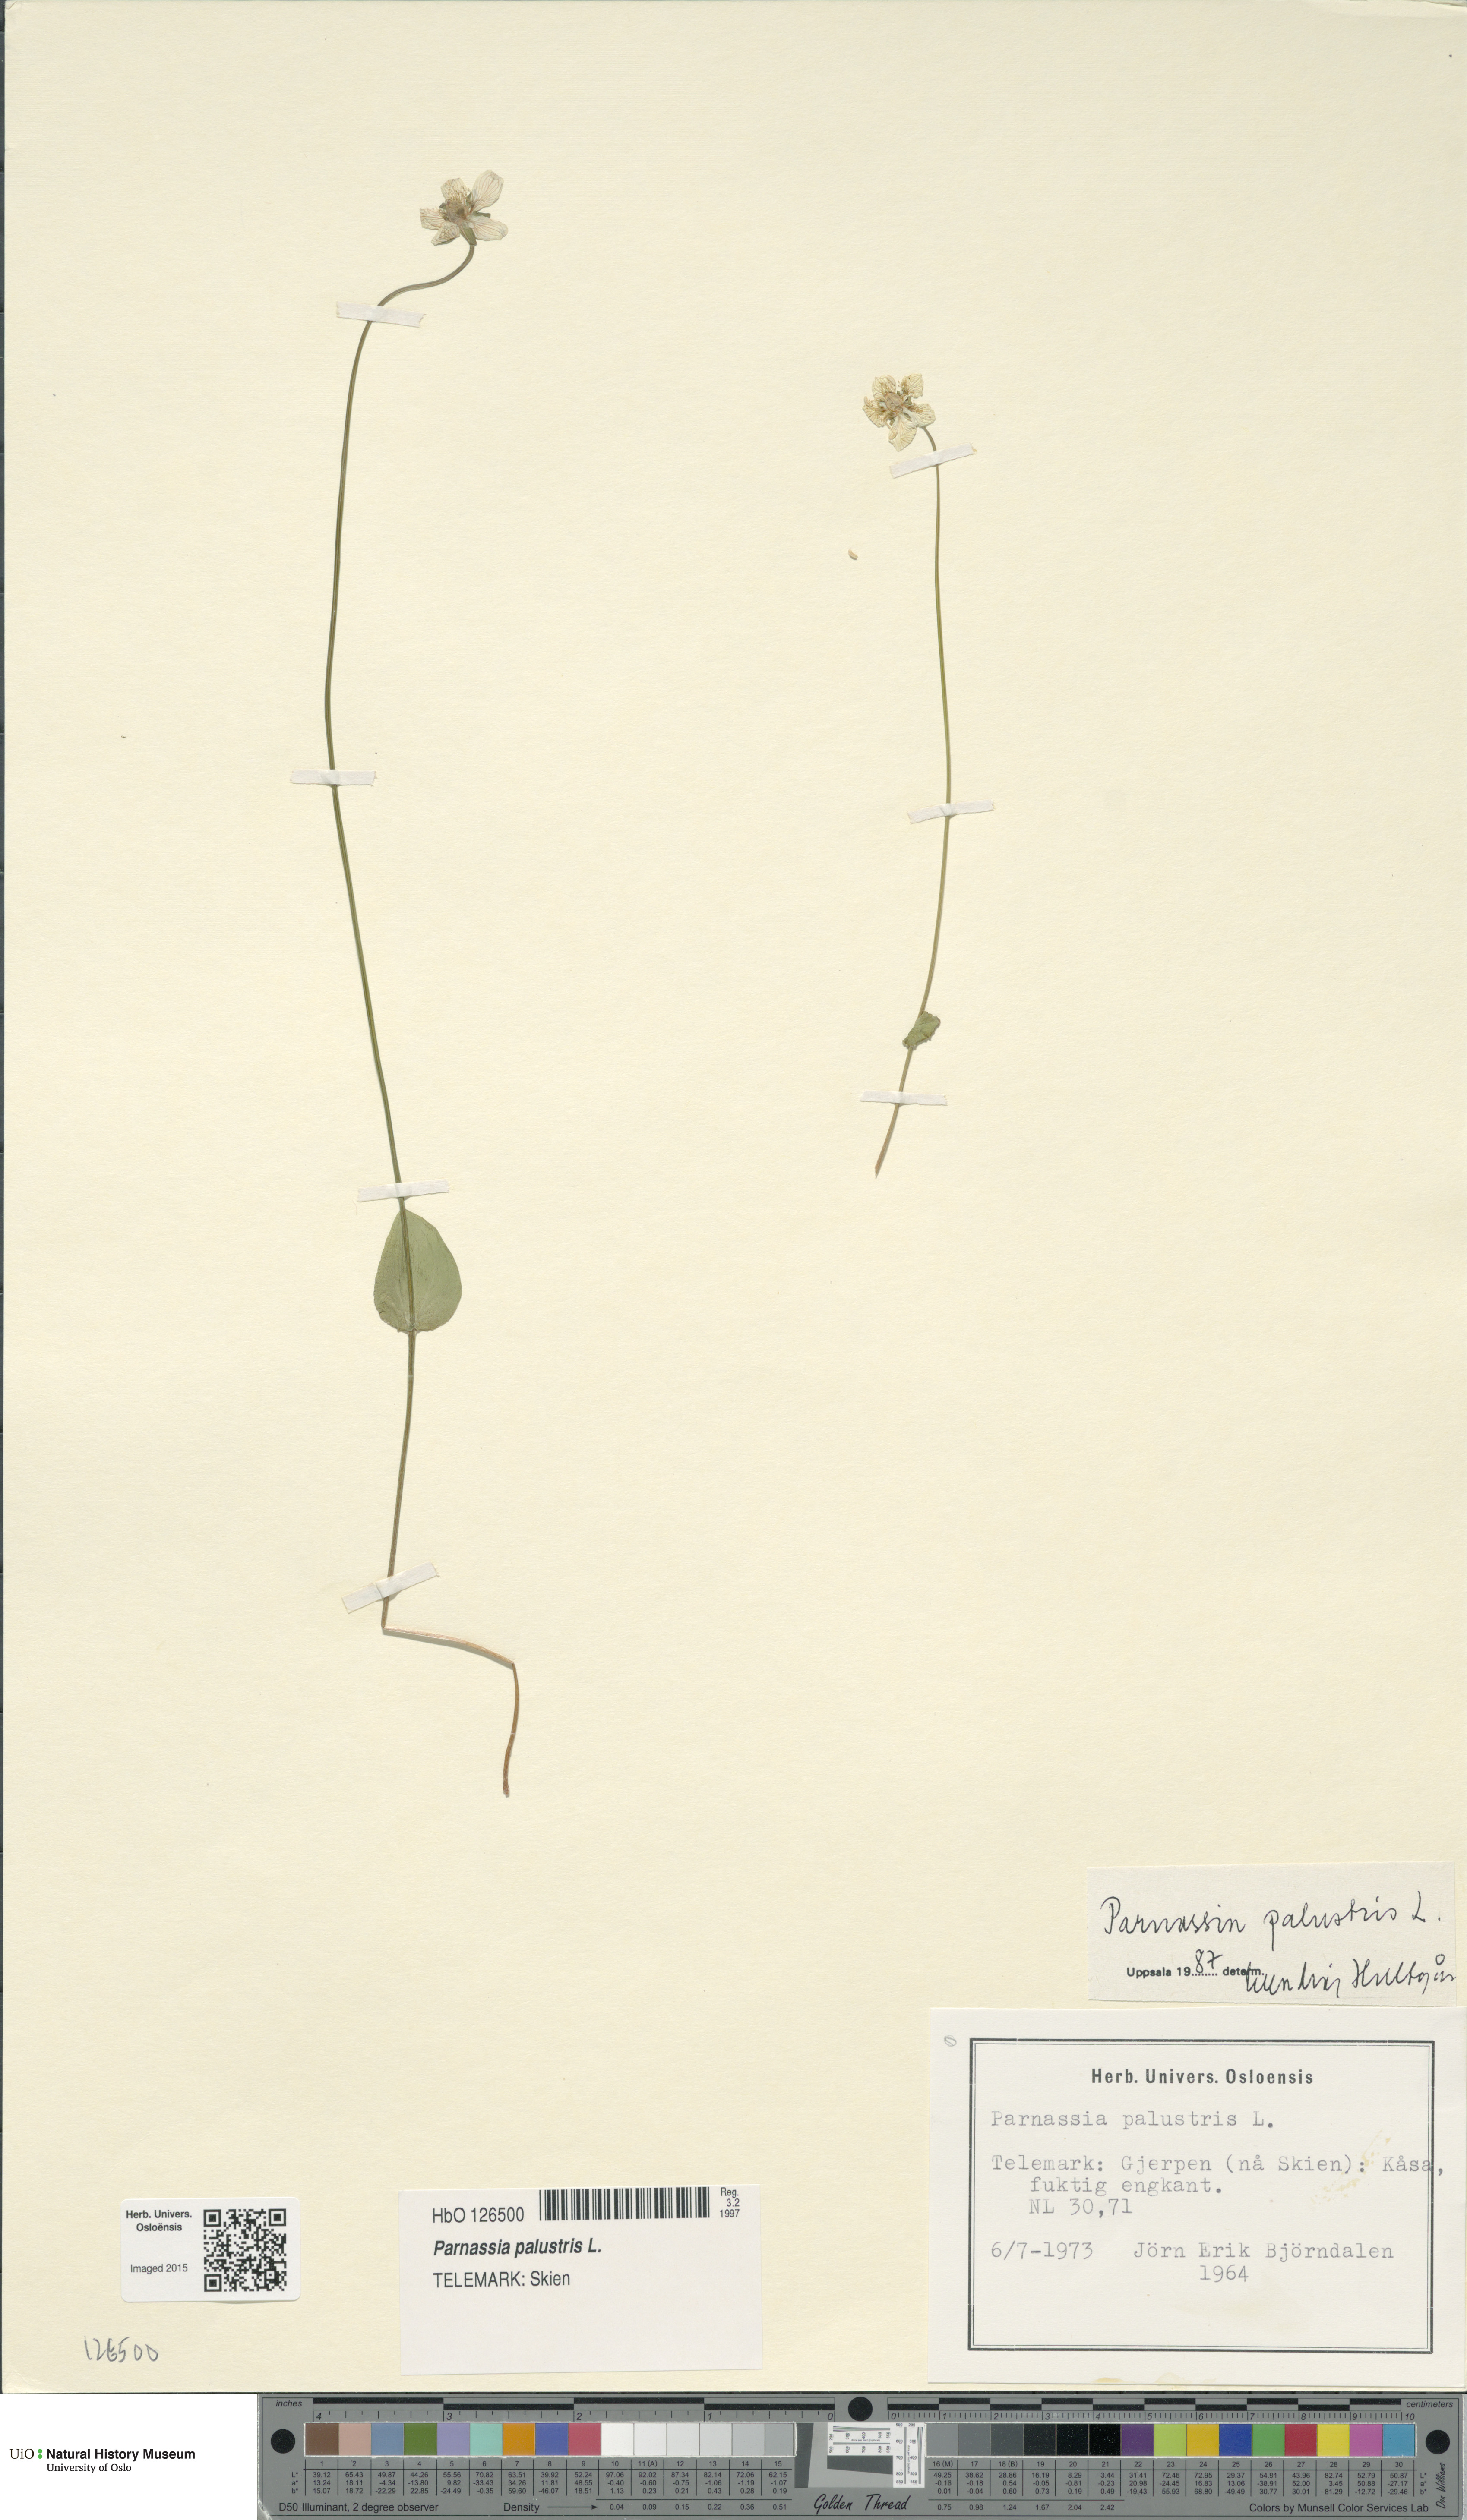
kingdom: Plantae
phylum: Tracheophyta
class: Magnoliopsida
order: Celastrales
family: Parnassiaceae
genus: Parnassia
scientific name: Parnassia palustris
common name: Grass-of-parnassus
